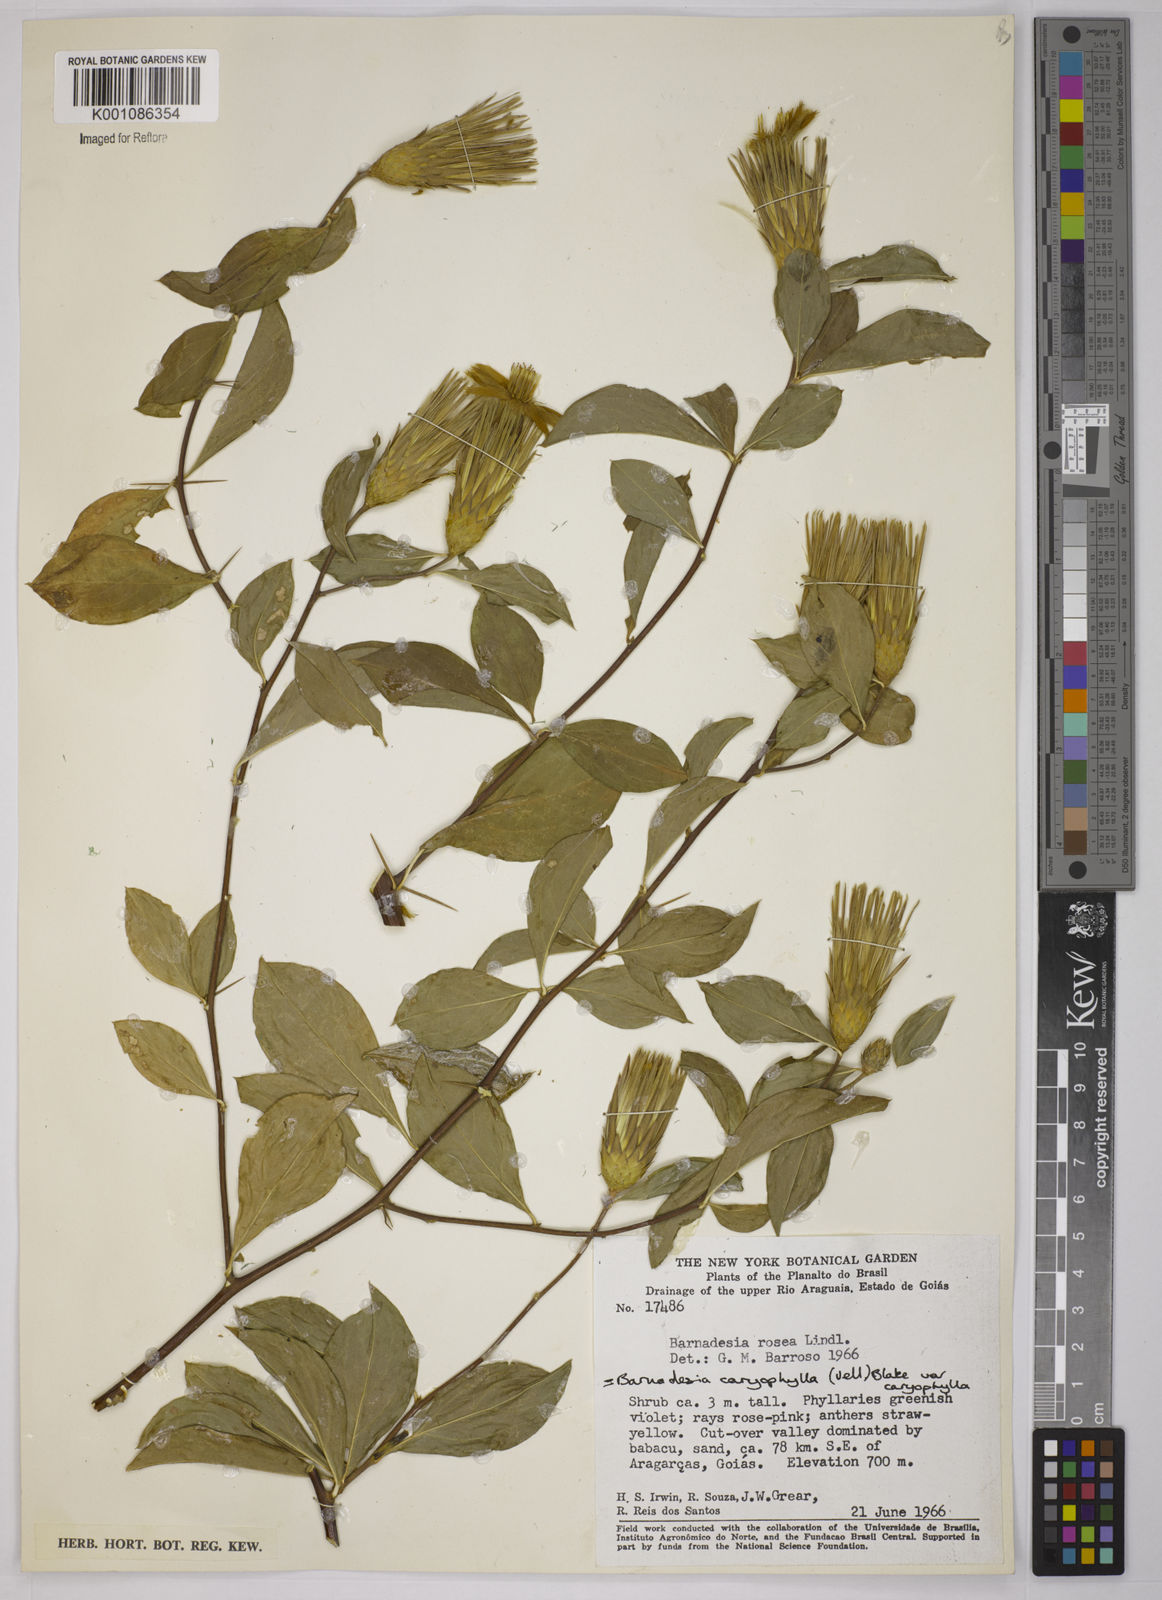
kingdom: Plantae
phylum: Tracheophyta
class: Magnoliopsida
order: Asterales
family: Asteraceae
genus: Barnadesia
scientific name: Barnadesia caryophylla
